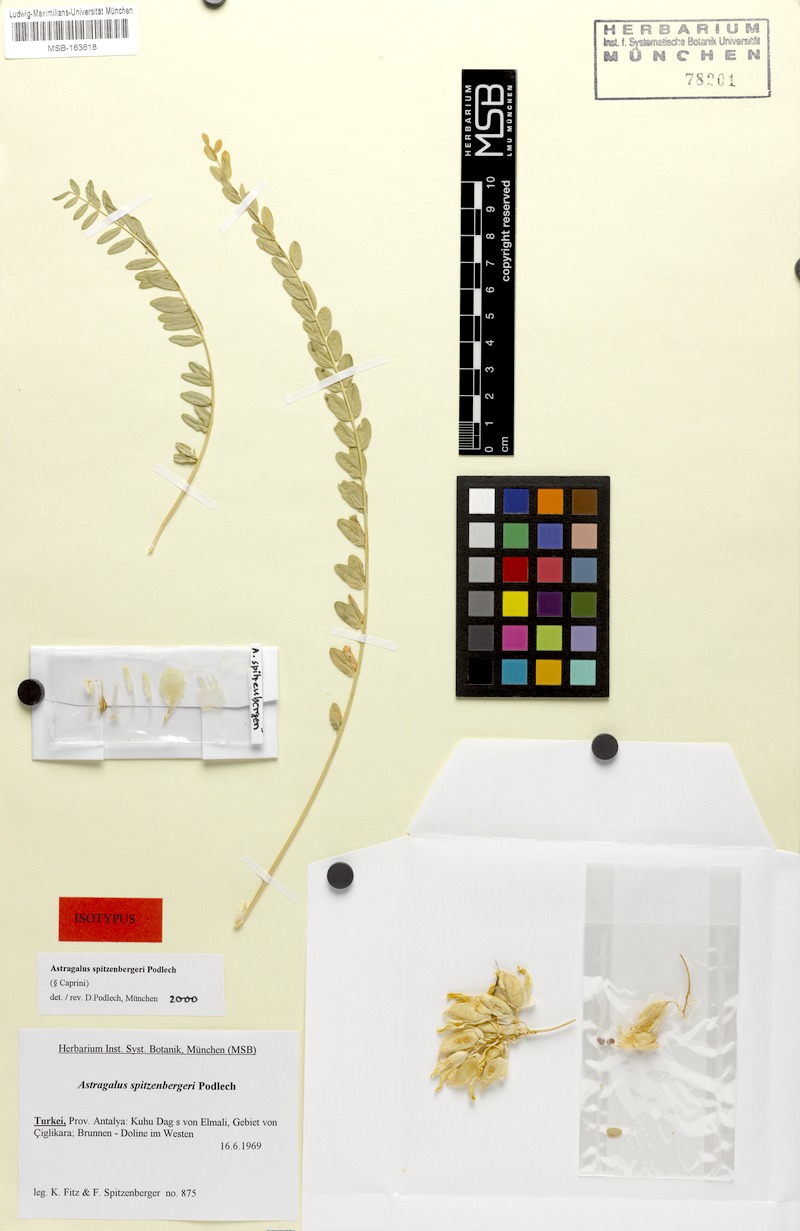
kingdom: Plantae
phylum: Tracheophyta
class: Magnoliopsida
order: Fabales
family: Fabaceae
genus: Astragalus
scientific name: Astragalus spitzenbergeri
